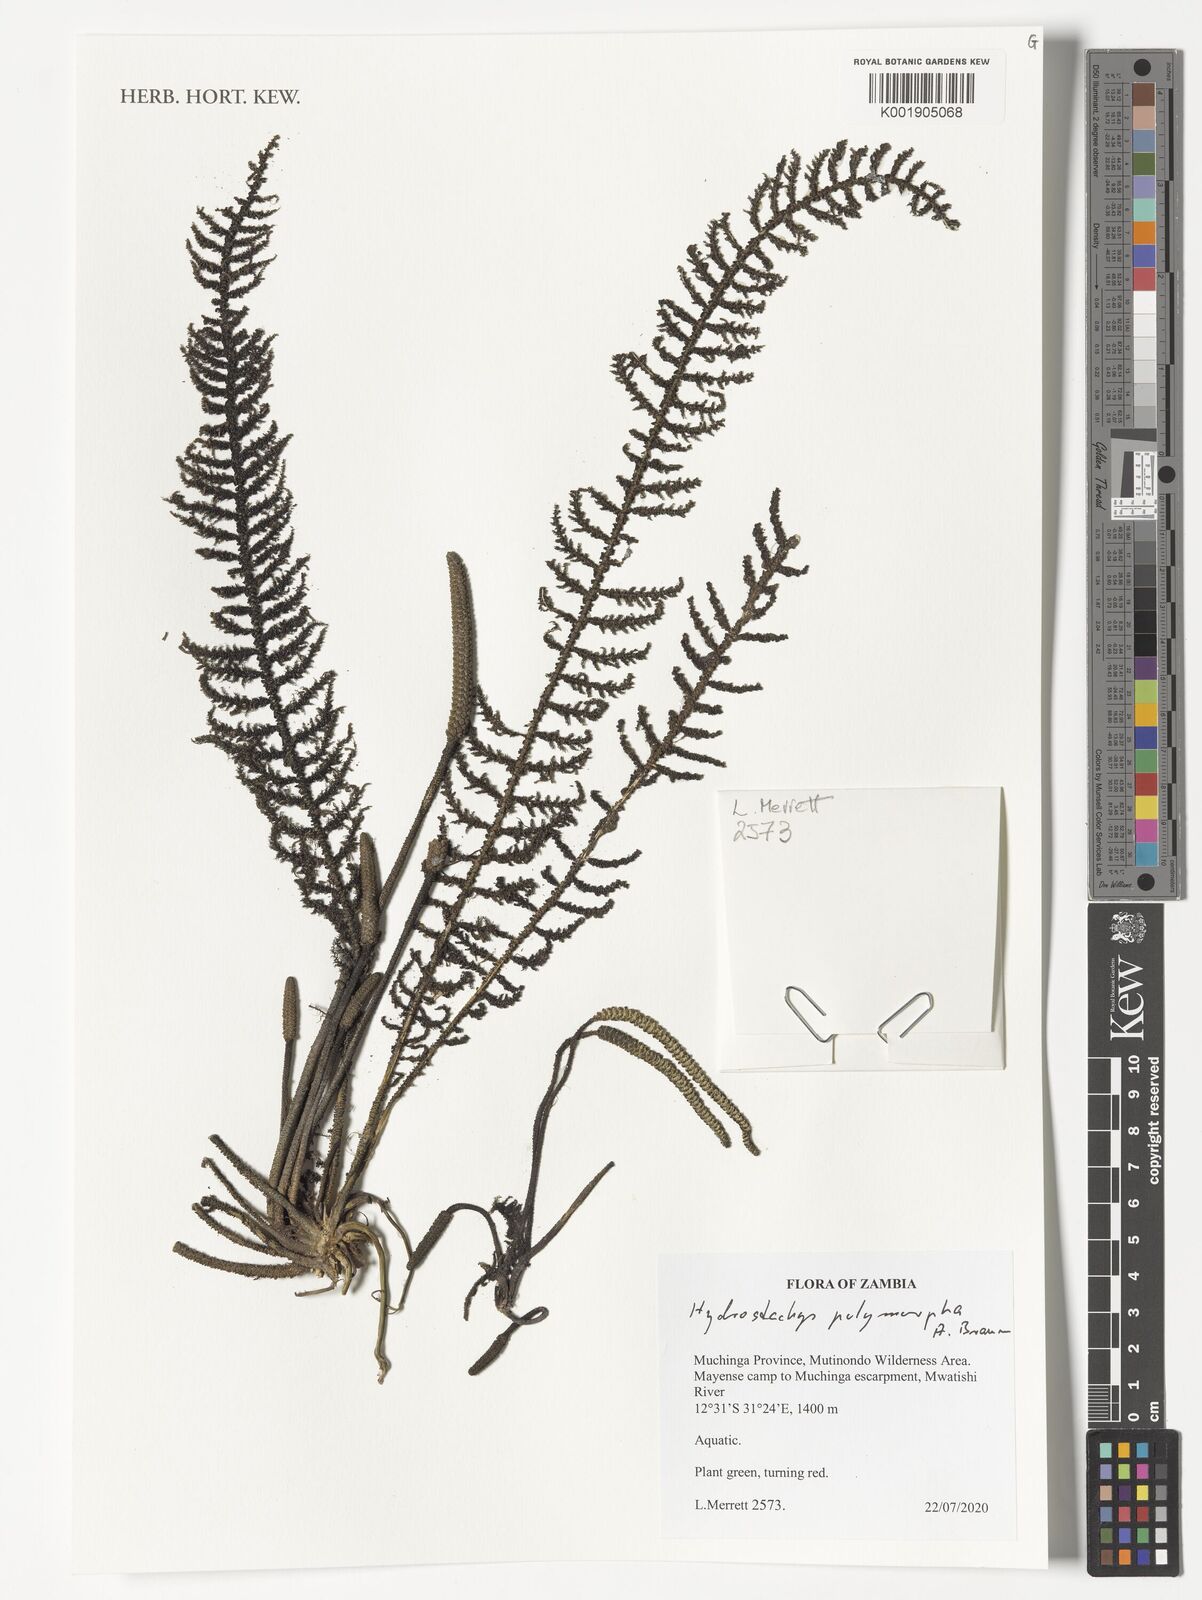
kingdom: Plantae
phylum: Tracheophyta
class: Magnoliopsida
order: Cornales
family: Hydrostachyaceae
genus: Hydrostachys
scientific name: Hydrostachys polymorpha
